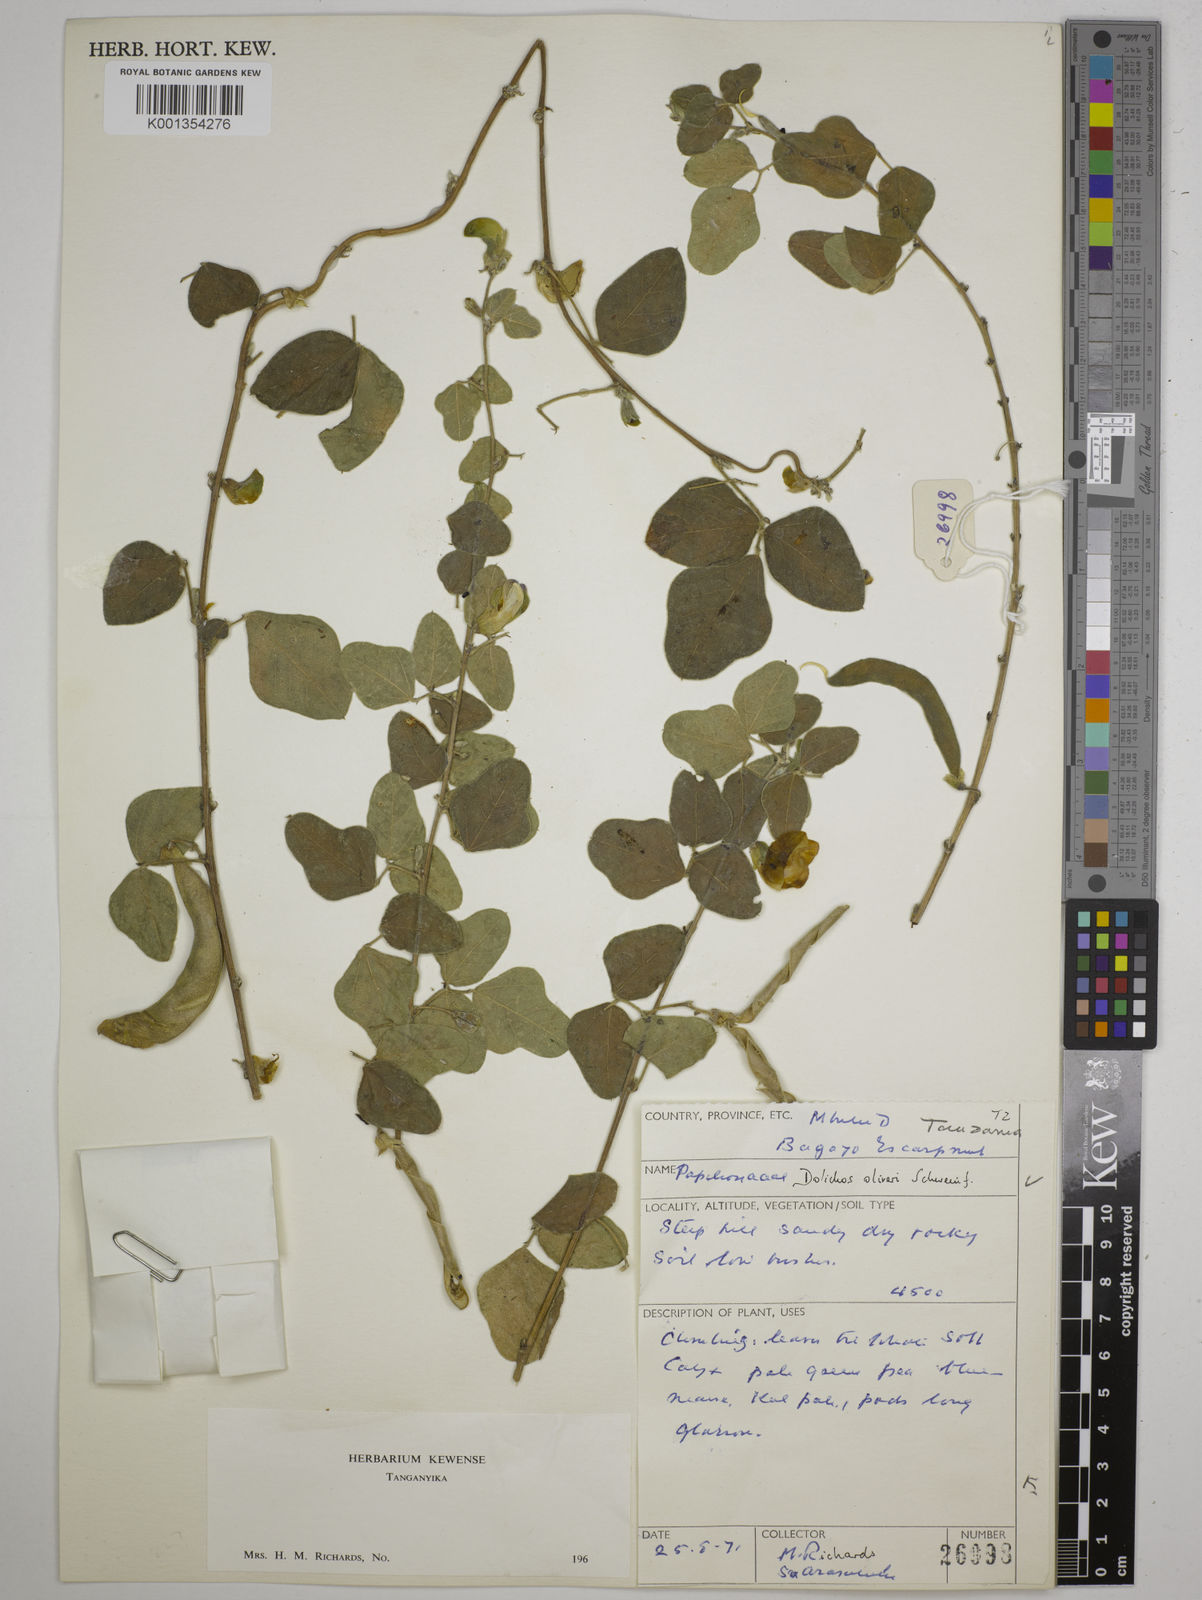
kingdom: Plantae
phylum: Tracheophyta
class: Magnoliopsida
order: Fabales
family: Fabaceae
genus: Dolichos
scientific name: Dolichos oliveri
